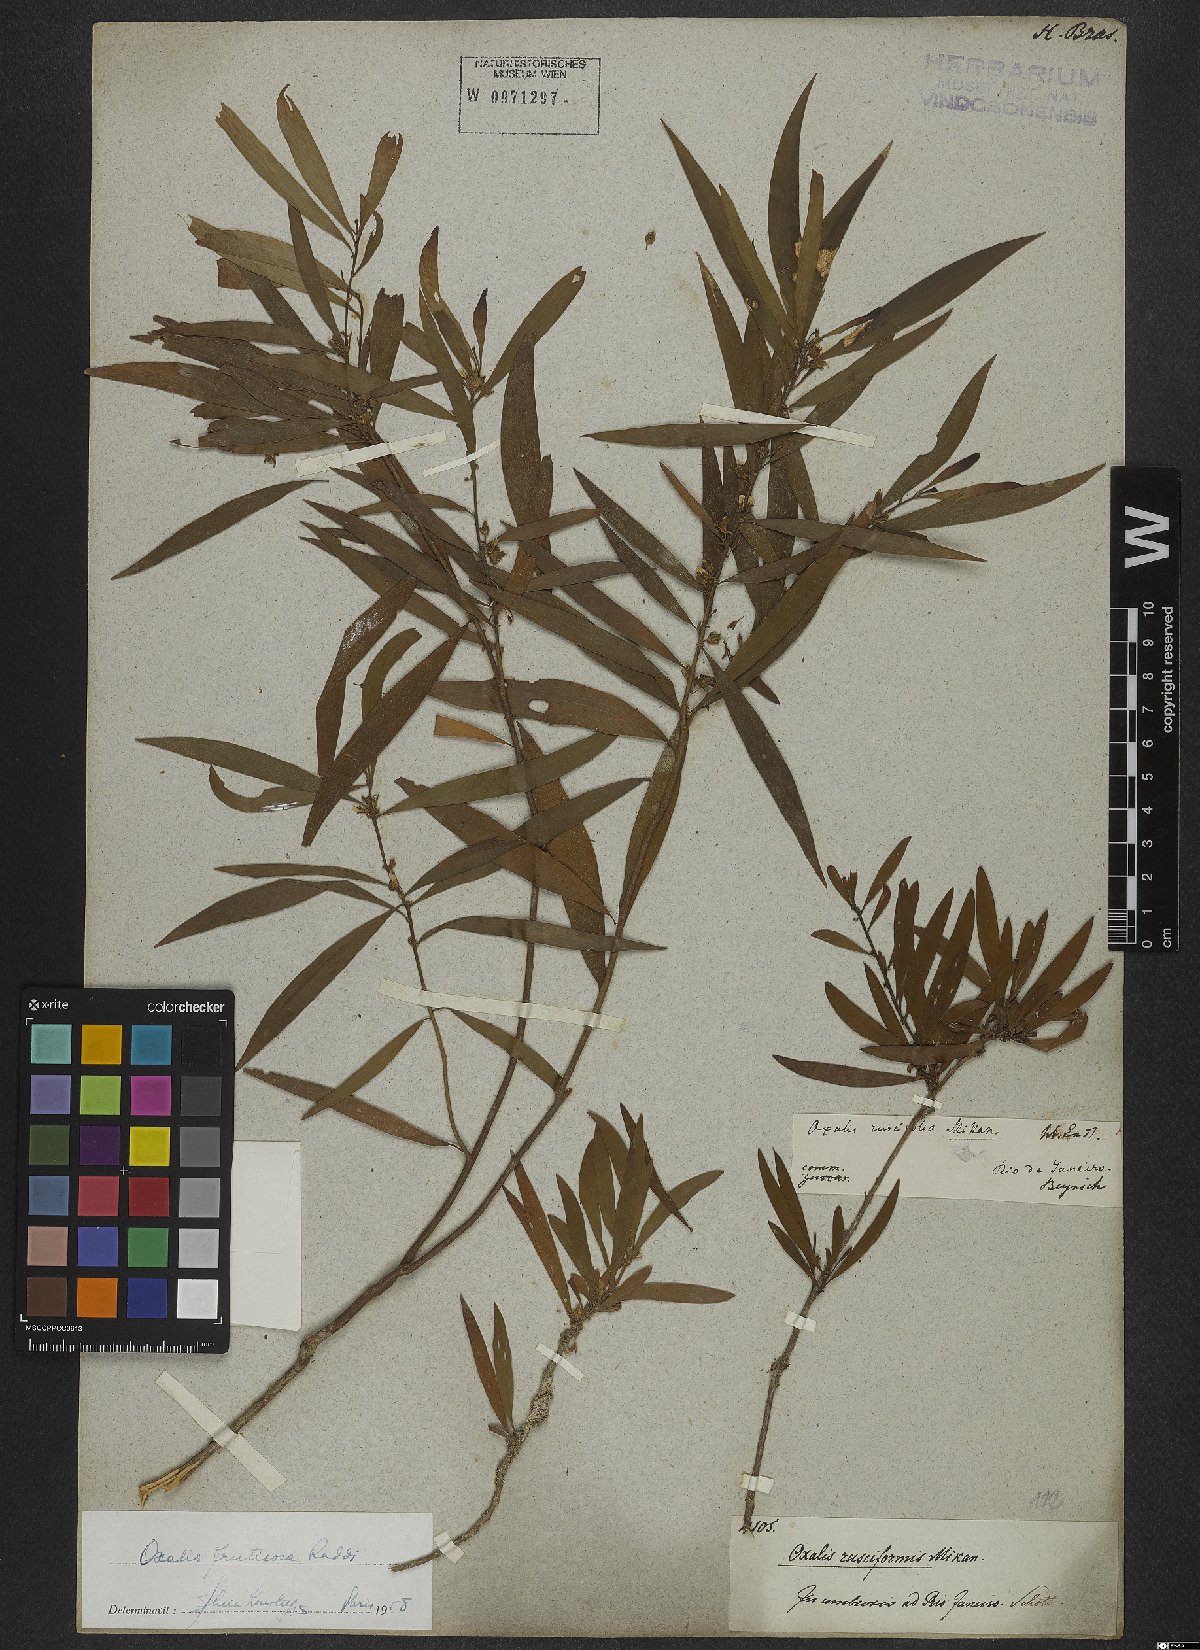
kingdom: Plantae
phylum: Tracheophyta
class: Magnoliopsida
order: Oxalidales
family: Oxalidaceae
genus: Oxalis
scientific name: Oxalis fruticosa
